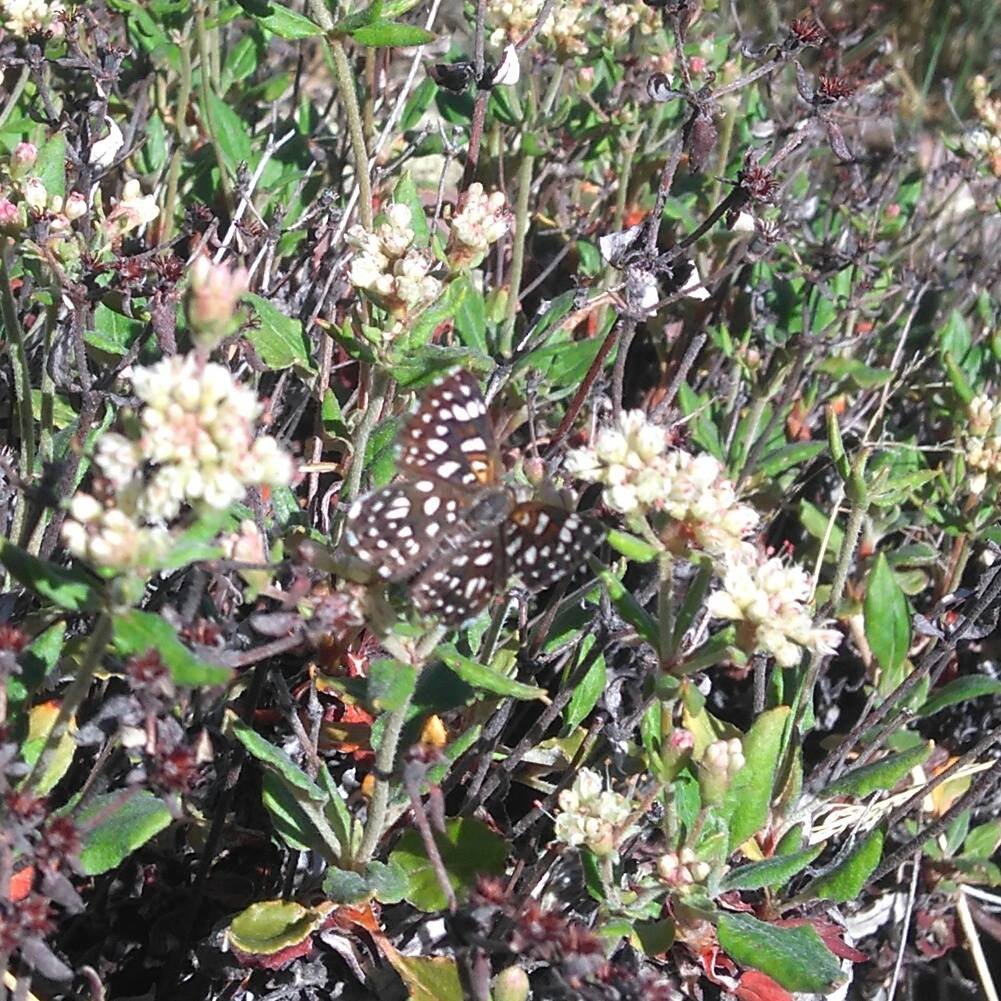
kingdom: Animalia
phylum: Arthropoda
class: Insecta
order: Lepidoptera
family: Riodinidae
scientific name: Riodinidae
